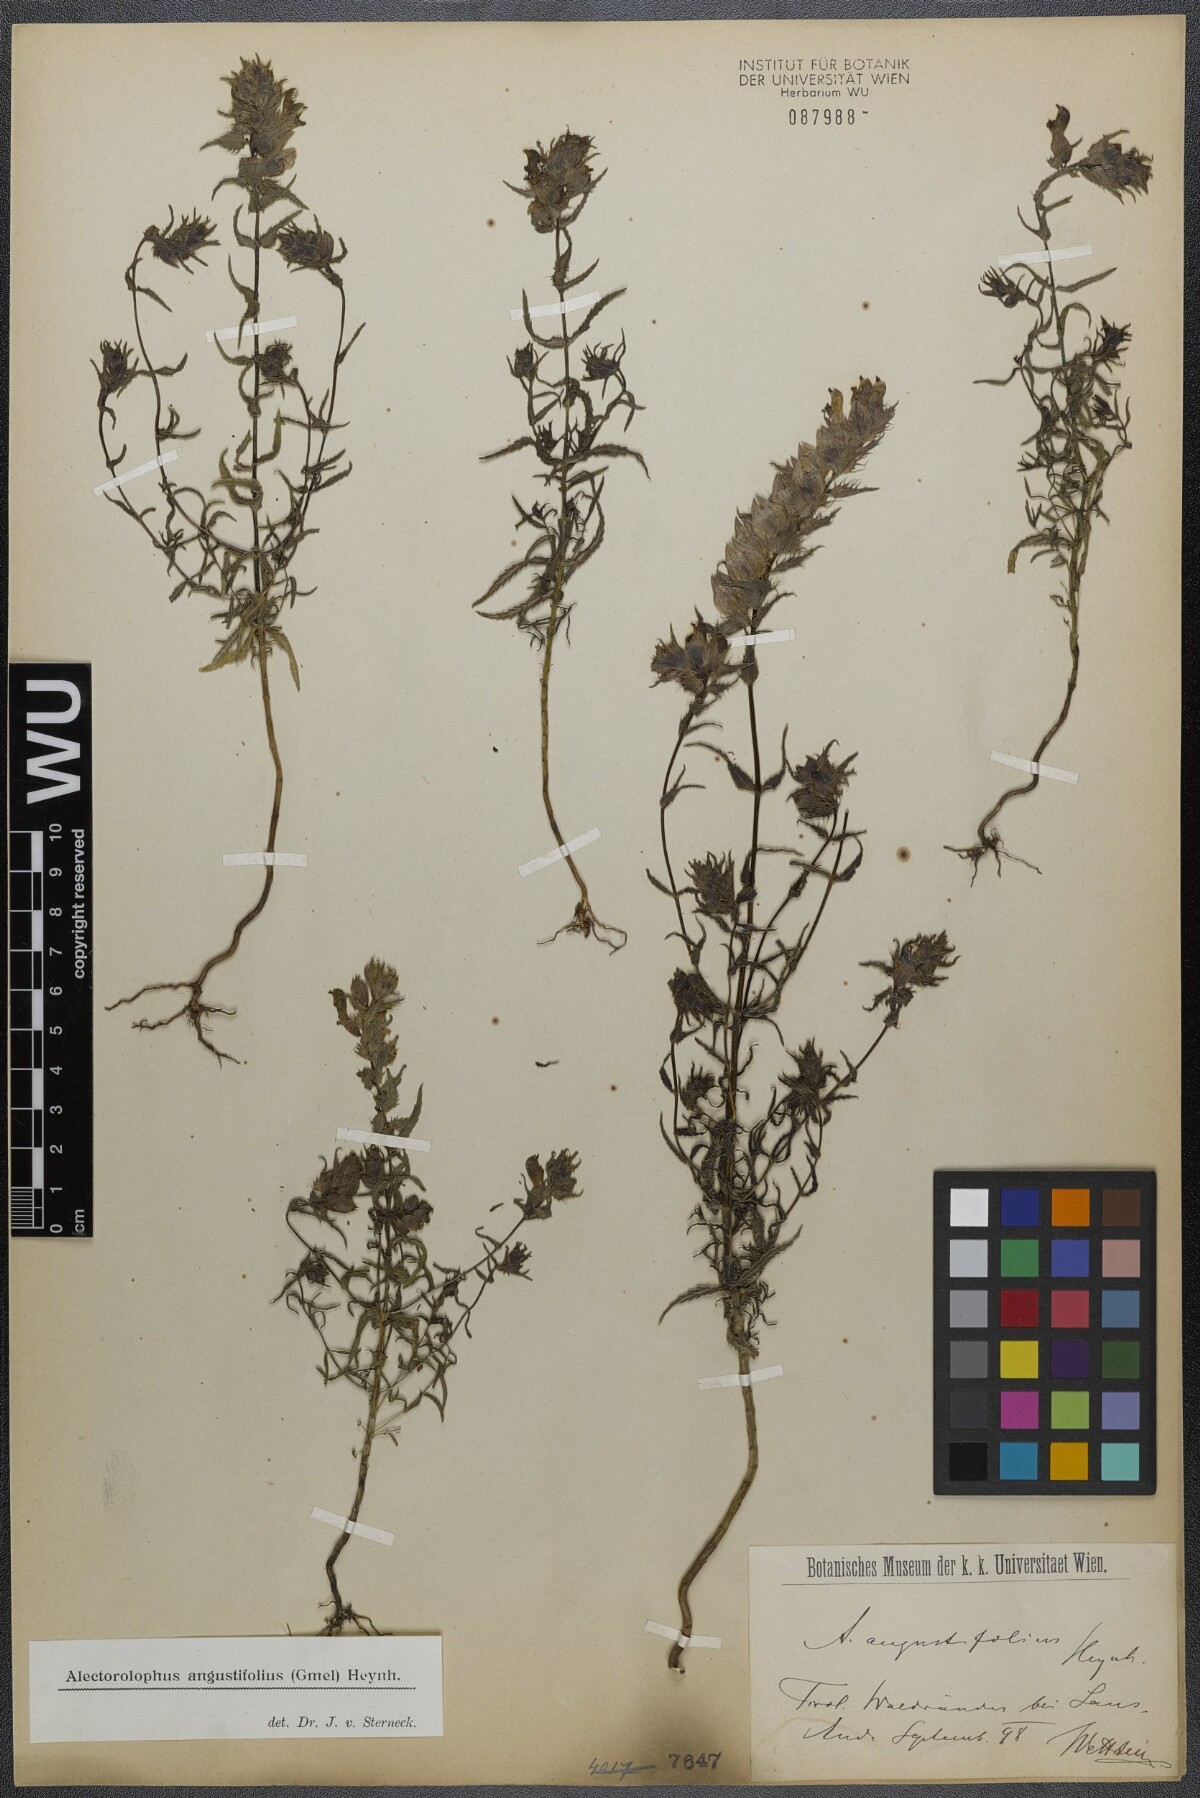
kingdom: Plantae
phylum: Tracheophyta
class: Magnoliopsida
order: Lamiales
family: Orobanchaceae
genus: Rhinanthus
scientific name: Rhinanthus
